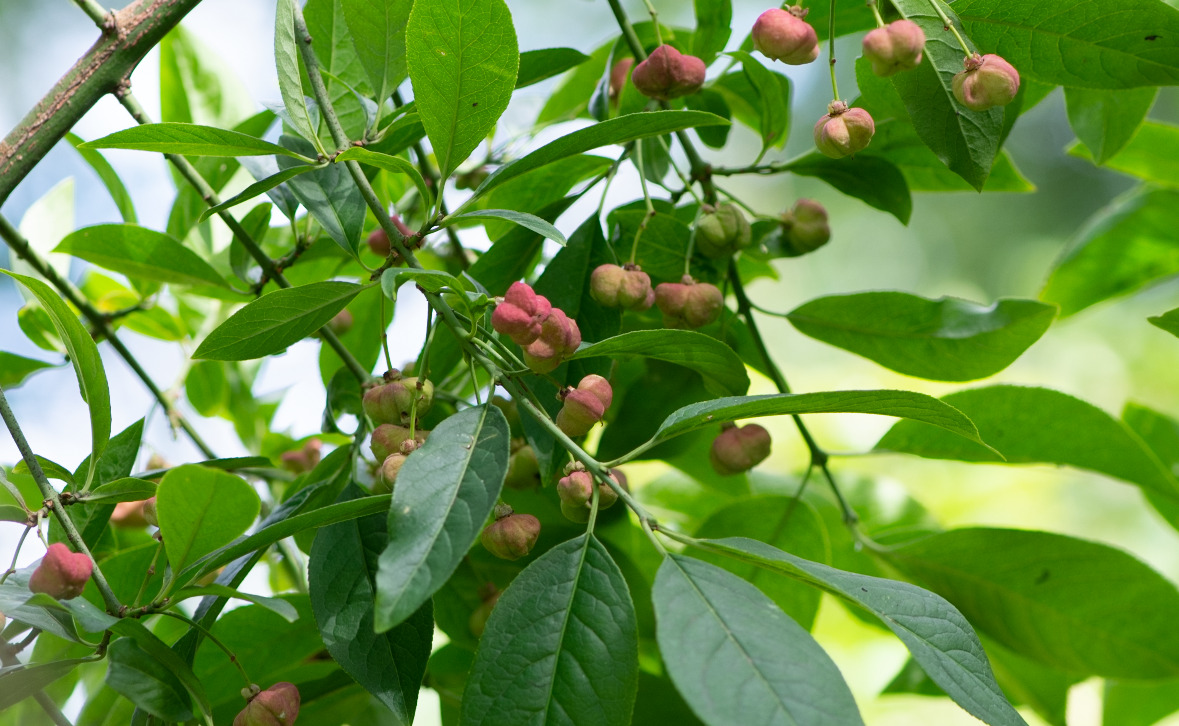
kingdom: Plantae
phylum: Tracheophyta
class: Magnoliopsida
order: Celastrales
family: Celastraceae
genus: Euonymus
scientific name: Euonymus europaeus
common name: Benved
